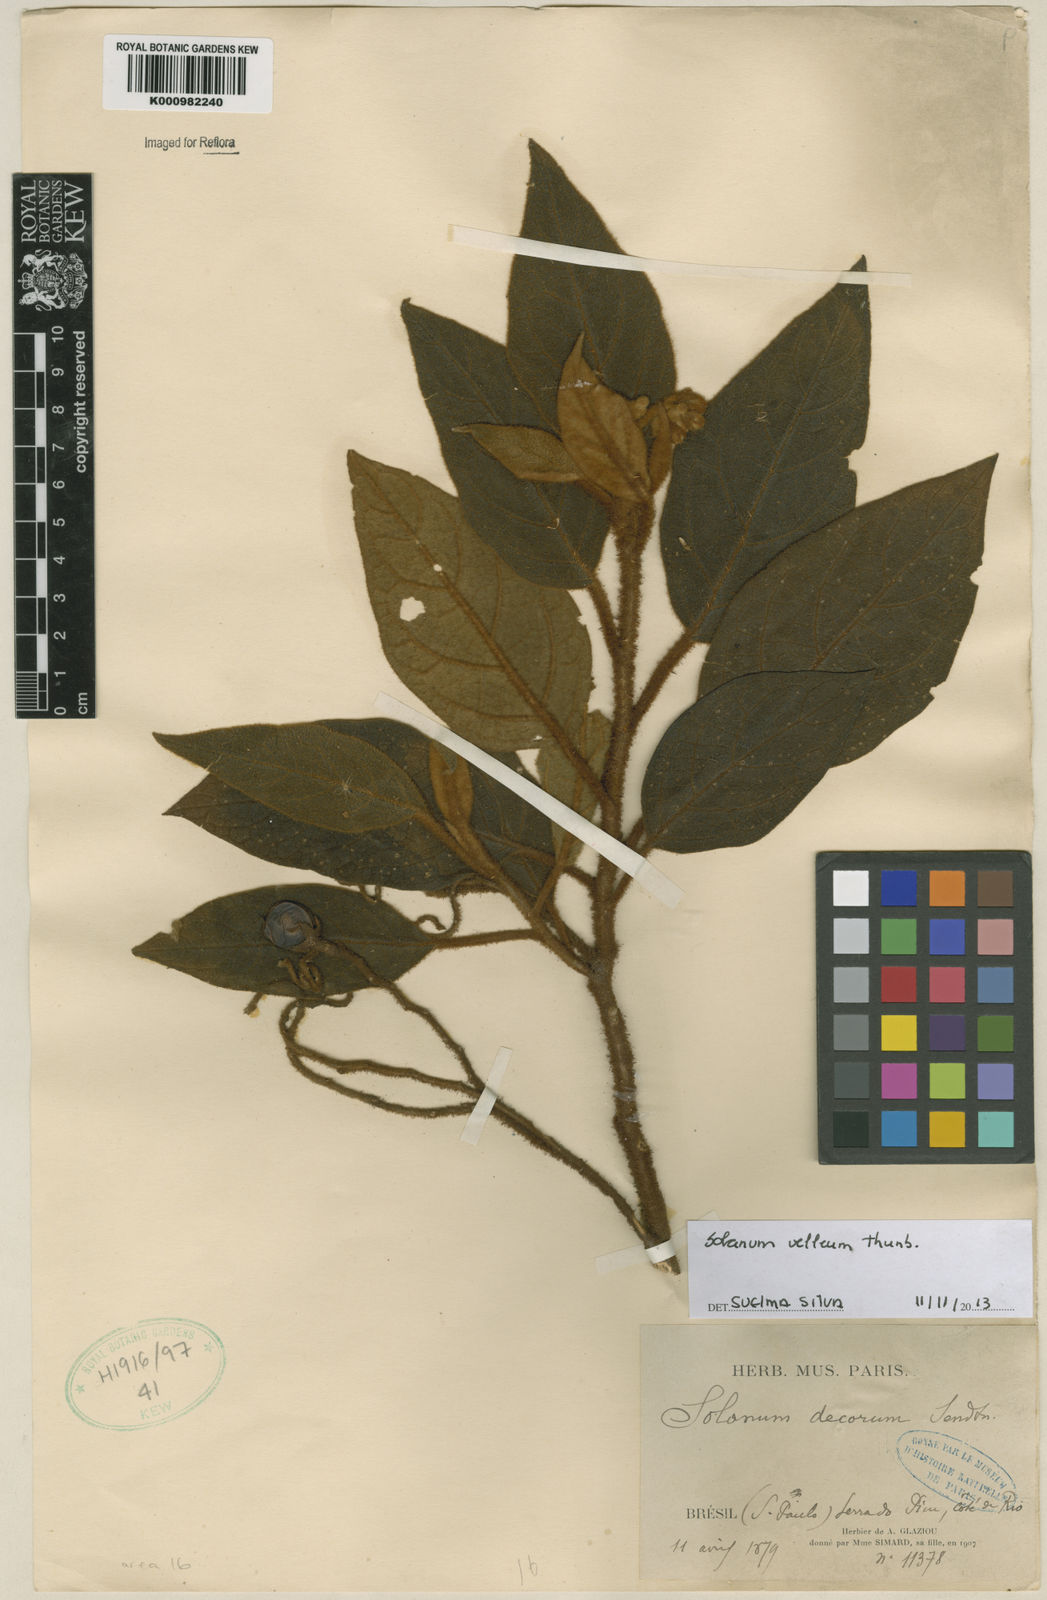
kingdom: Plantae
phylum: Tracheophyta
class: Magnoliopsida
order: Solanales
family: Solanaceae
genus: Solanum
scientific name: Solanum velleum
